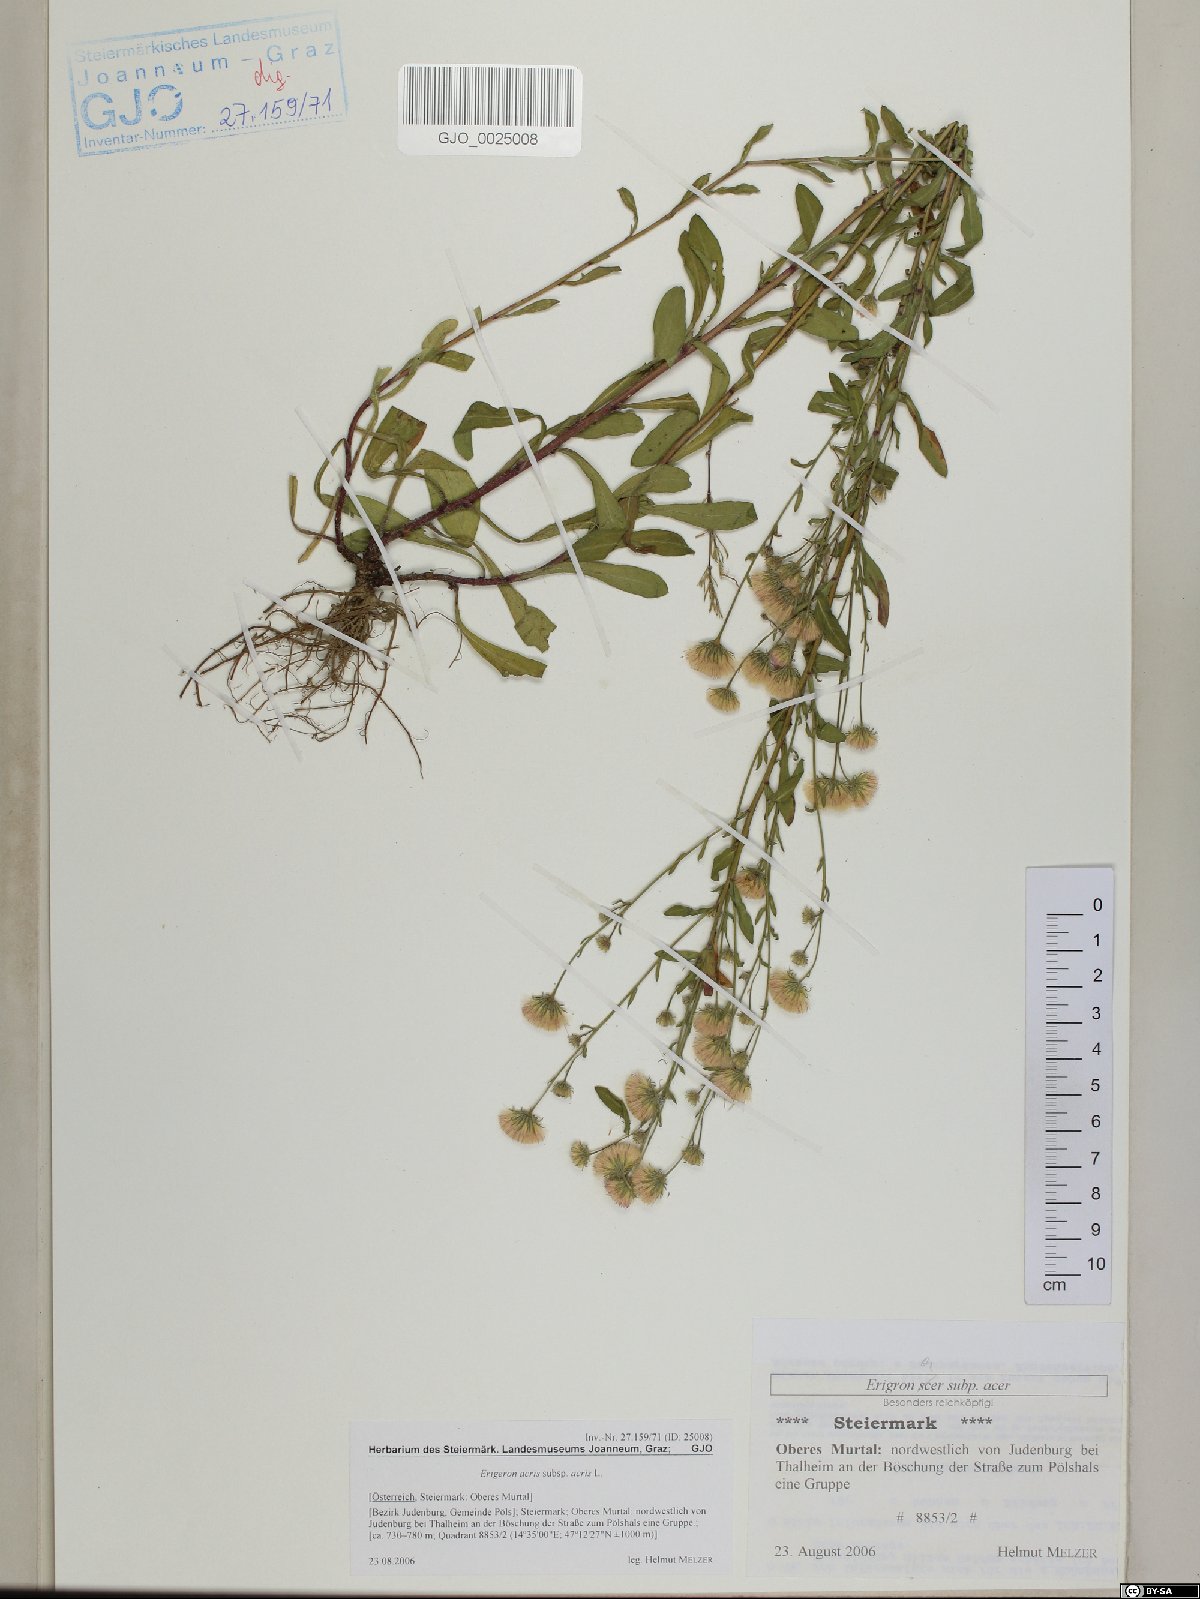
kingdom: Plantae
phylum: Tracheophyta
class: Magnoliopsida
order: Asterales
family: Asteraceae
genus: Erigeron
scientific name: Erigeron acris
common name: Blue fleabane
